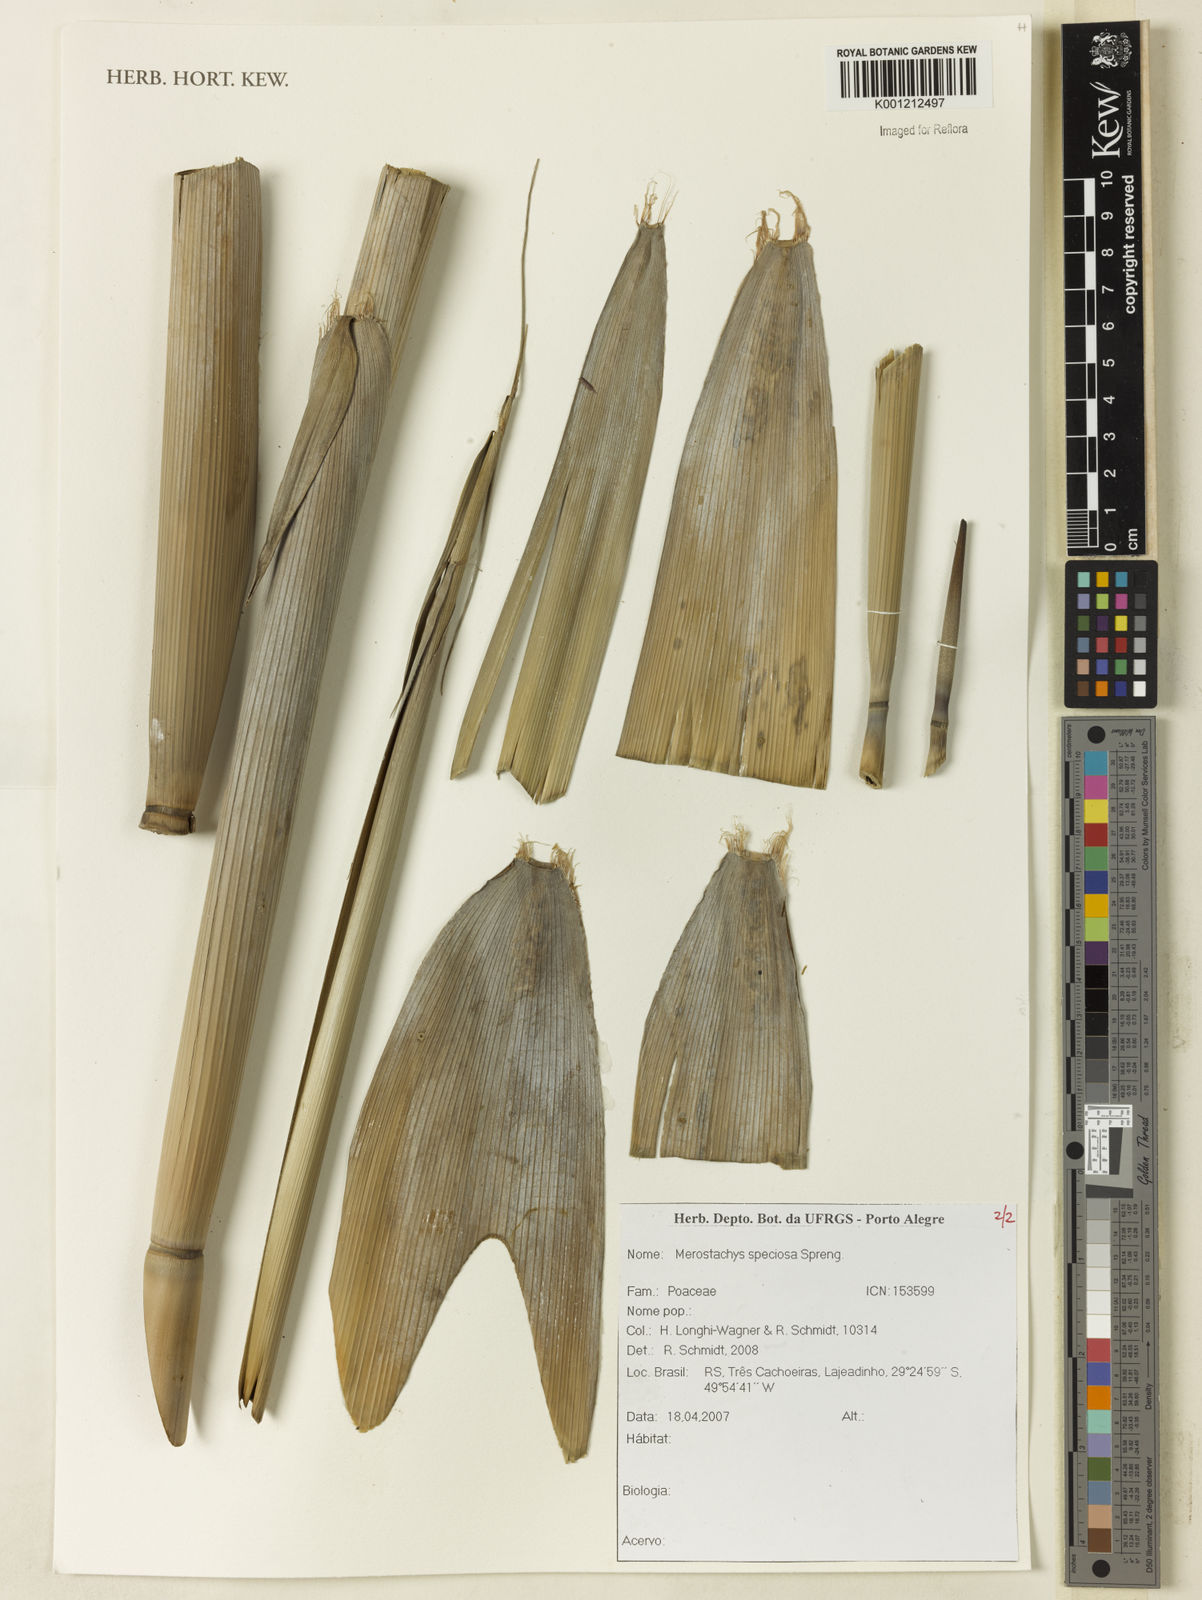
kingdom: Plantae
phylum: Tracheophyta
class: Liliopsida
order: Poales
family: Poaceae
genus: Merostachys
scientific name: Merostachys speciosa
